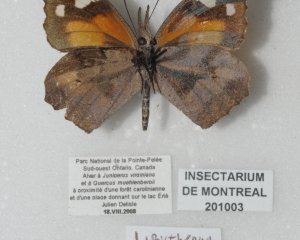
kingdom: Animalia
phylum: Arthropoda
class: Insecta
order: Lepidoptera
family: Nymphalidae
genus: Libytheana
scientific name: Libytheana carinenta
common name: American Snout
